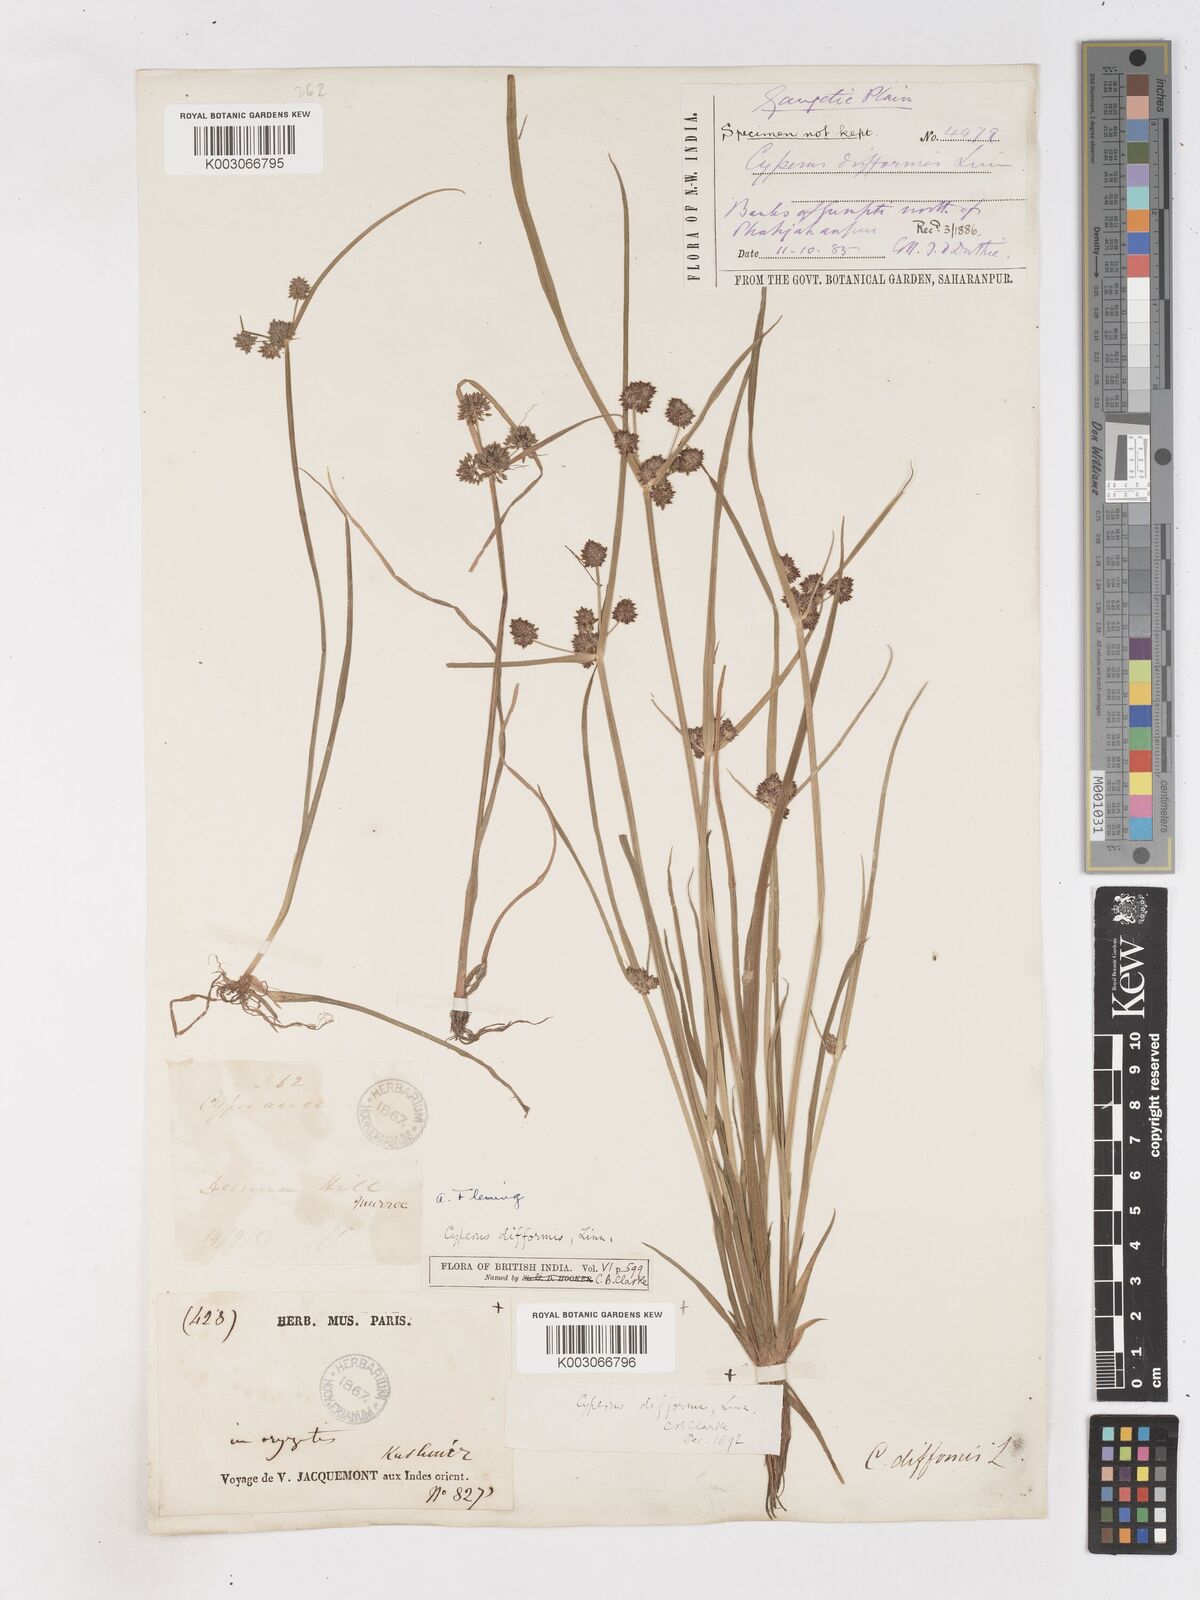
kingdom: Plantae
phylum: Tracheophyta
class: Liliopsida
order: Poales
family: Cyperaceae
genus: Cyperus
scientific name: Cyperus difformis
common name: Variable flatsedge
